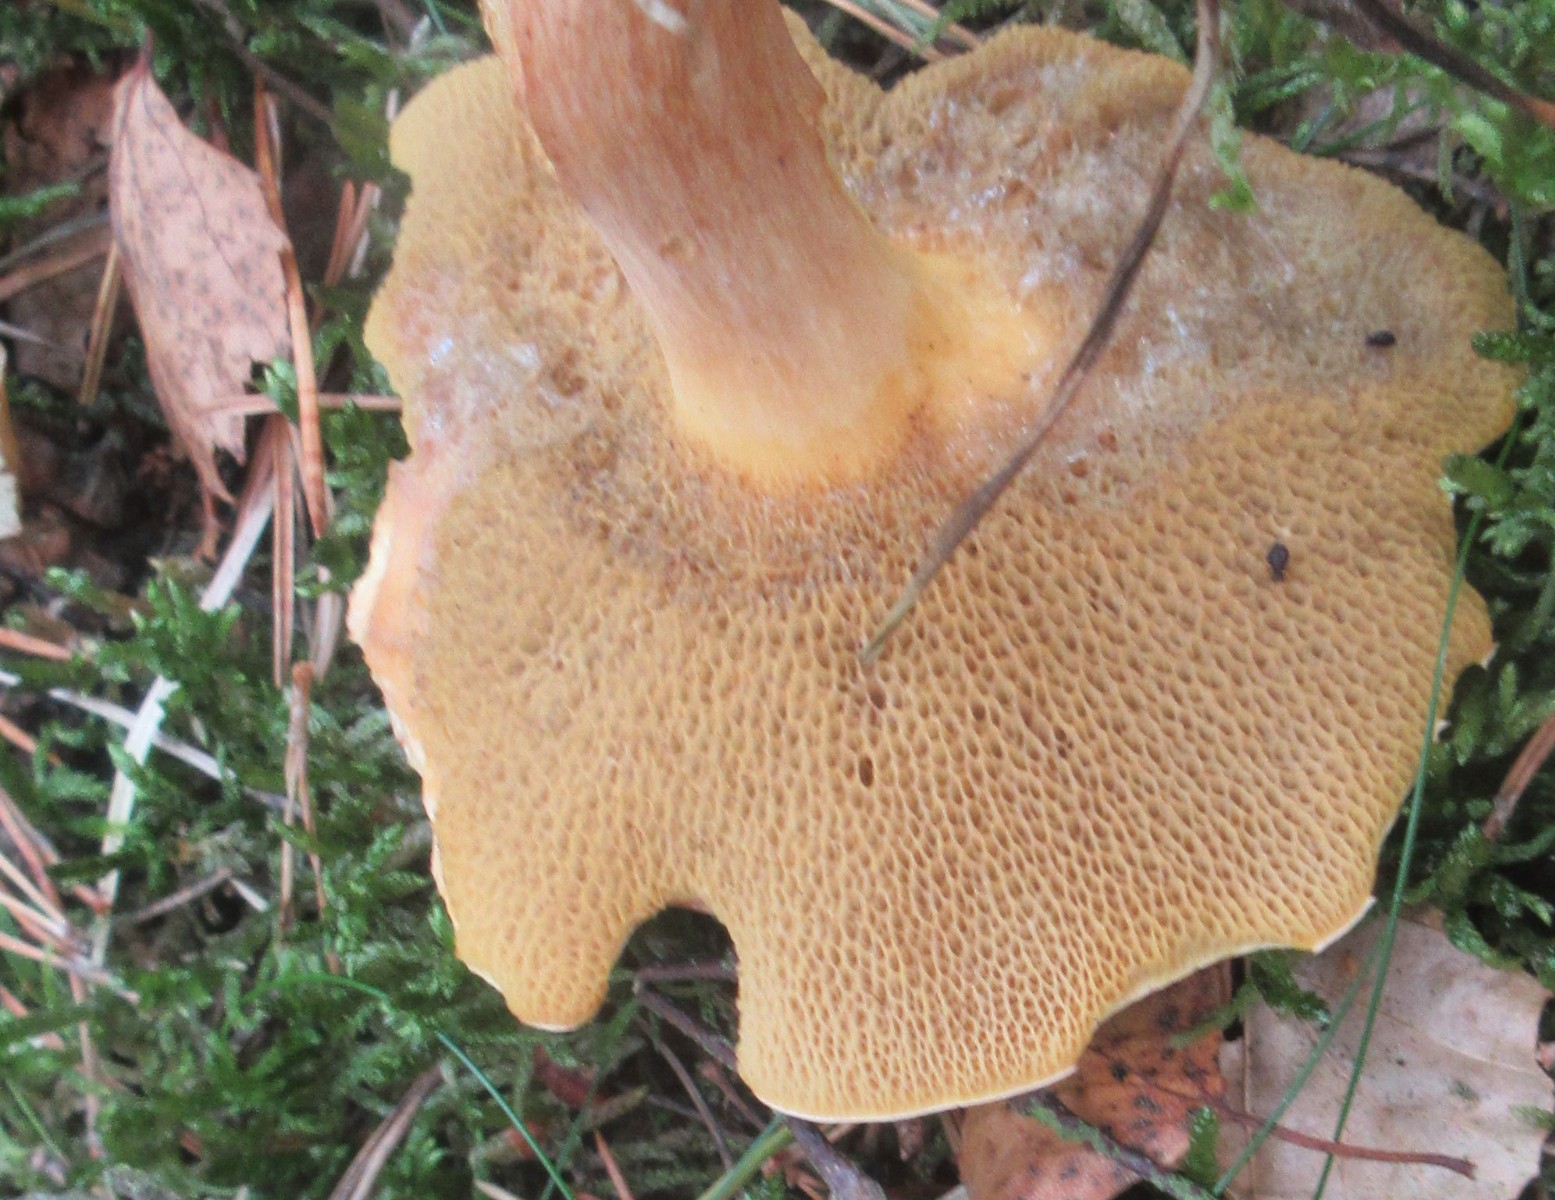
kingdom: Fungi
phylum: Basidiomycota
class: Agaricomycetes
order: Boletales
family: Suillaceae
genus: Suillus
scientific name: Suillus bovinus
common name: grovporet slimrørhat
